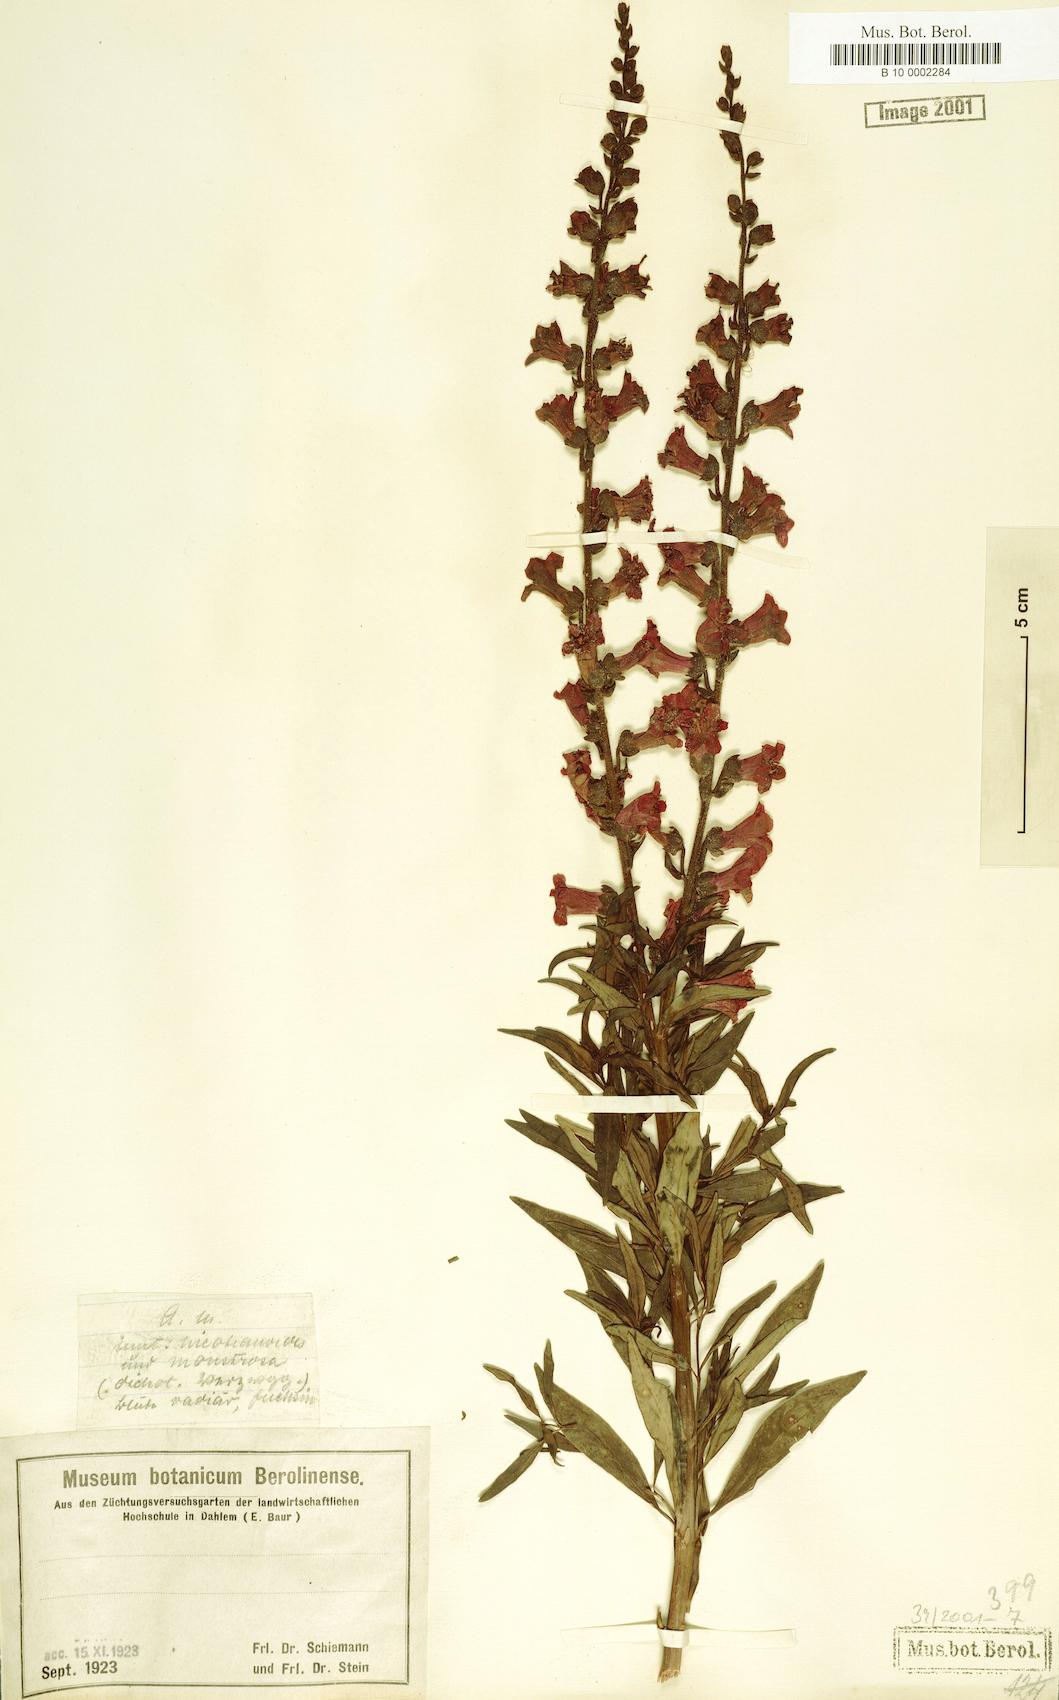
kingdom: Plantae
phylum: Tracheophyta
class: Magnoliopsida
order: Lamiales
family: Plantaginaceae
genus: Antirrhinum
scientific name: Antirrhinum majus
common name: Snapdragon
